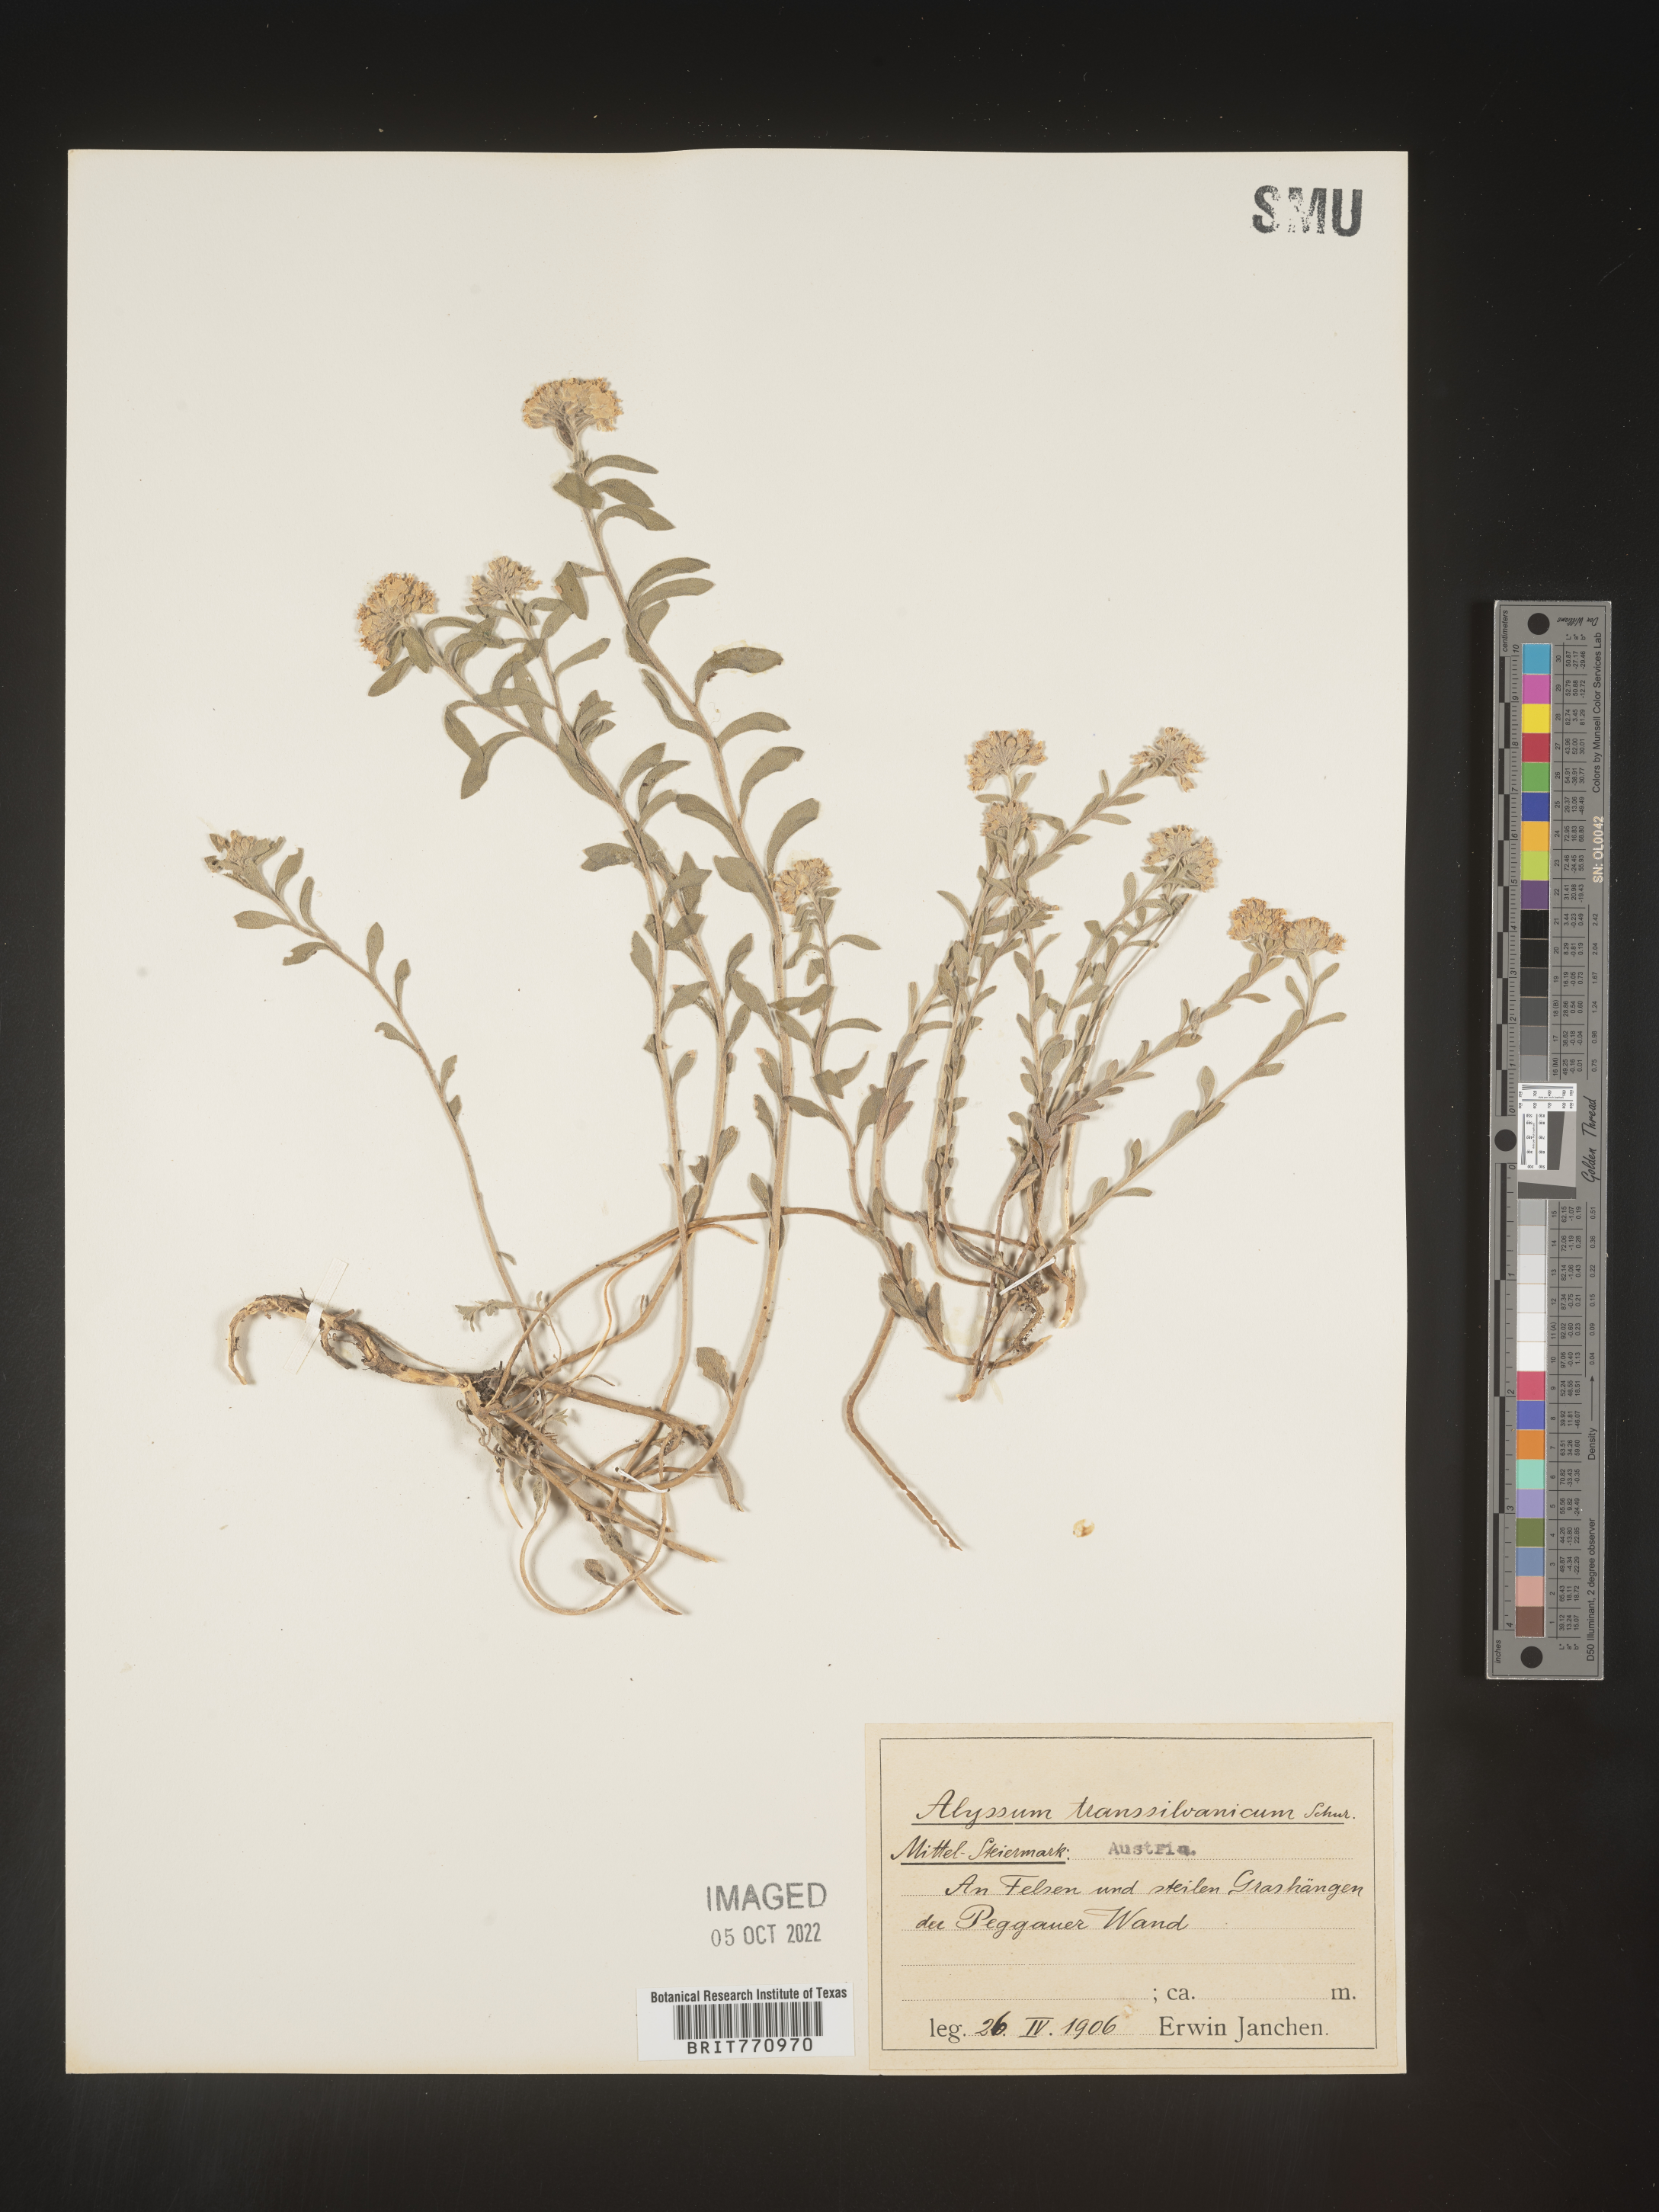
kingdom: Plantae
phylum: Tracheophyta
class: Magnoliopsida
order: Brassicales
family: Brassicaceae
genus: Alyssum
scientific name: Alyssum
